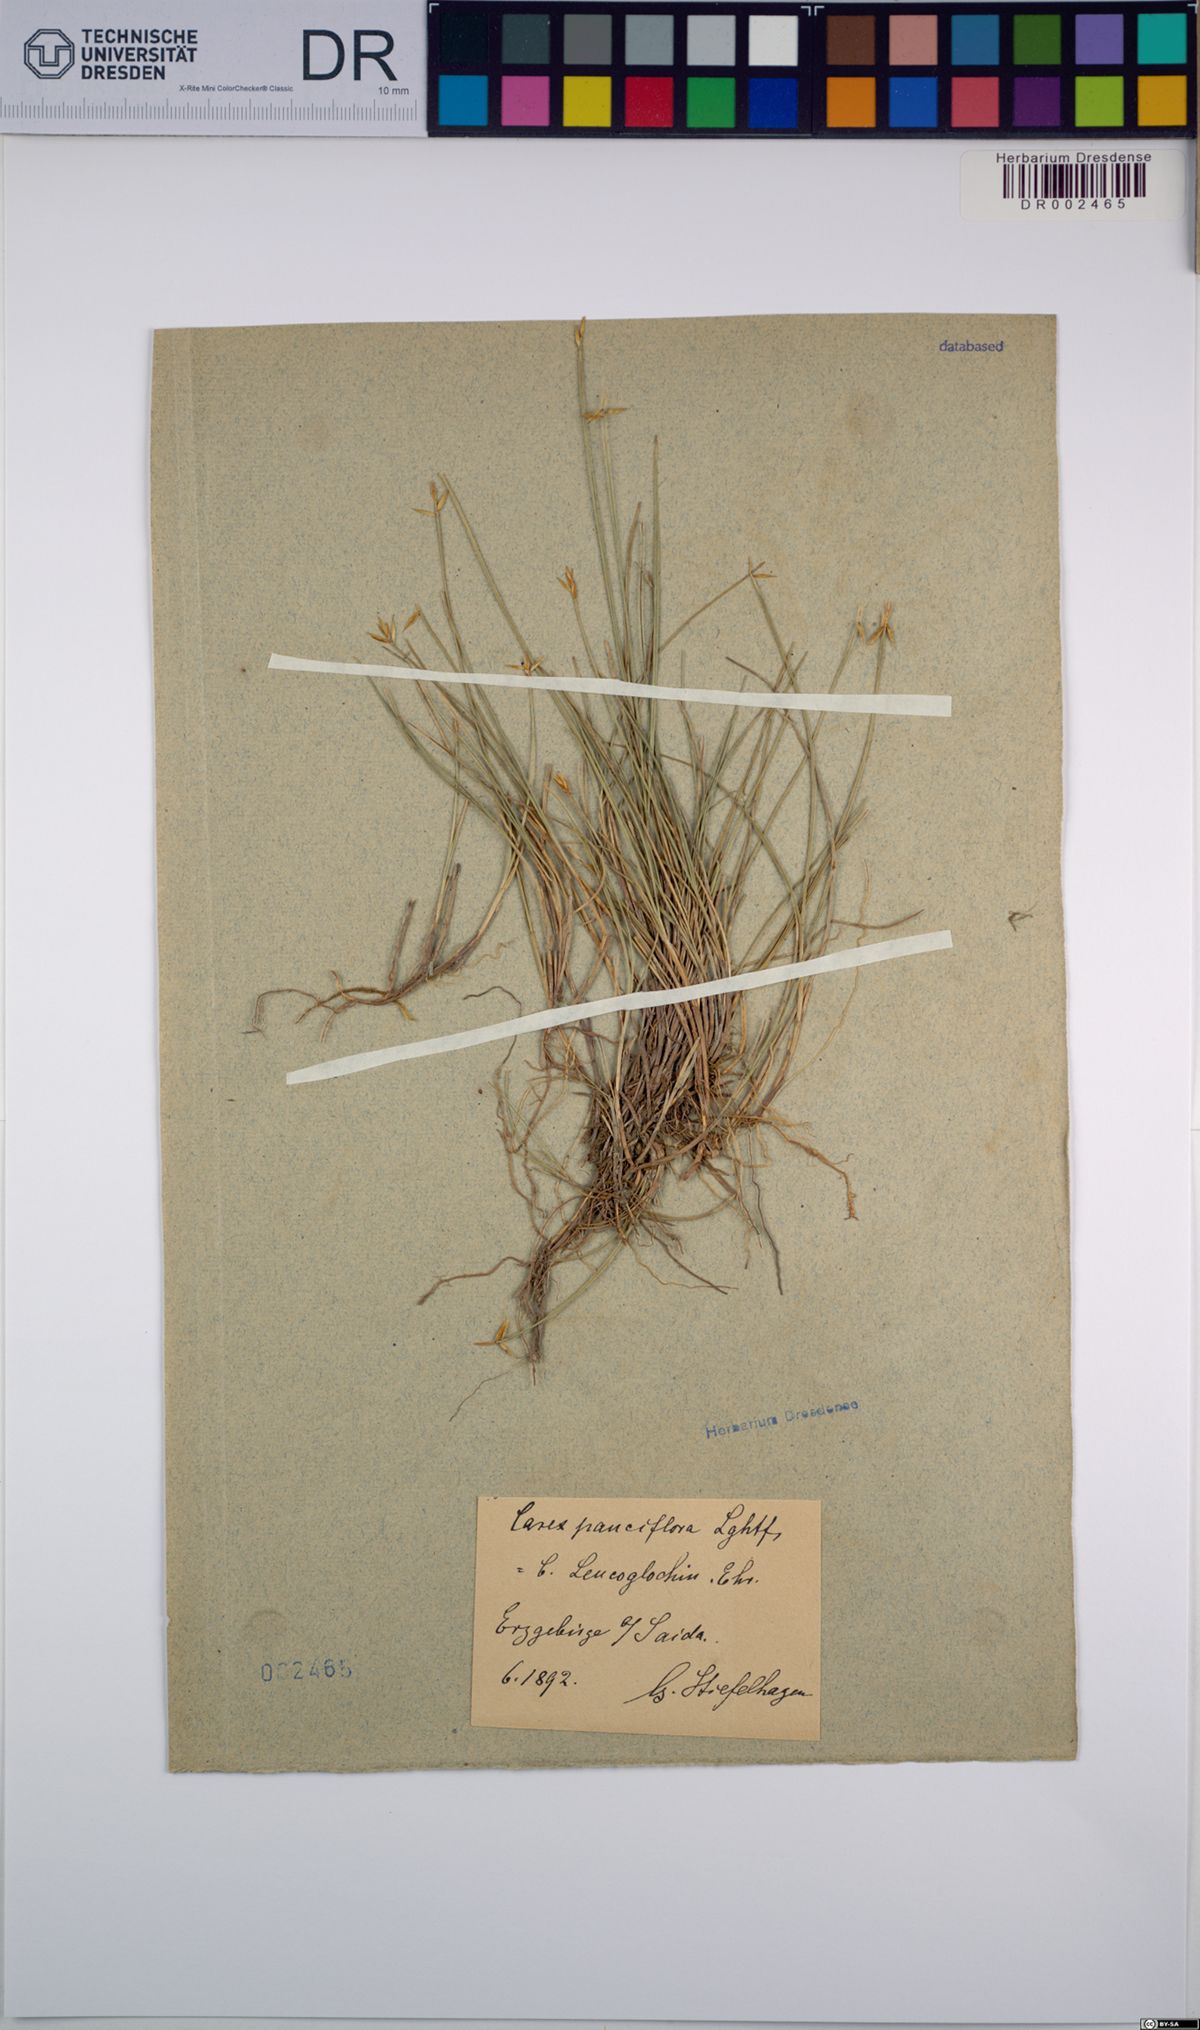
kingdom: Plantae
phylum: Tracheophyta
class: Liliopsida
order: Poales
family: Cyperaceae
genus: Carex
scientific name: Carex pauciflora
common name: Few-flowered sedge
